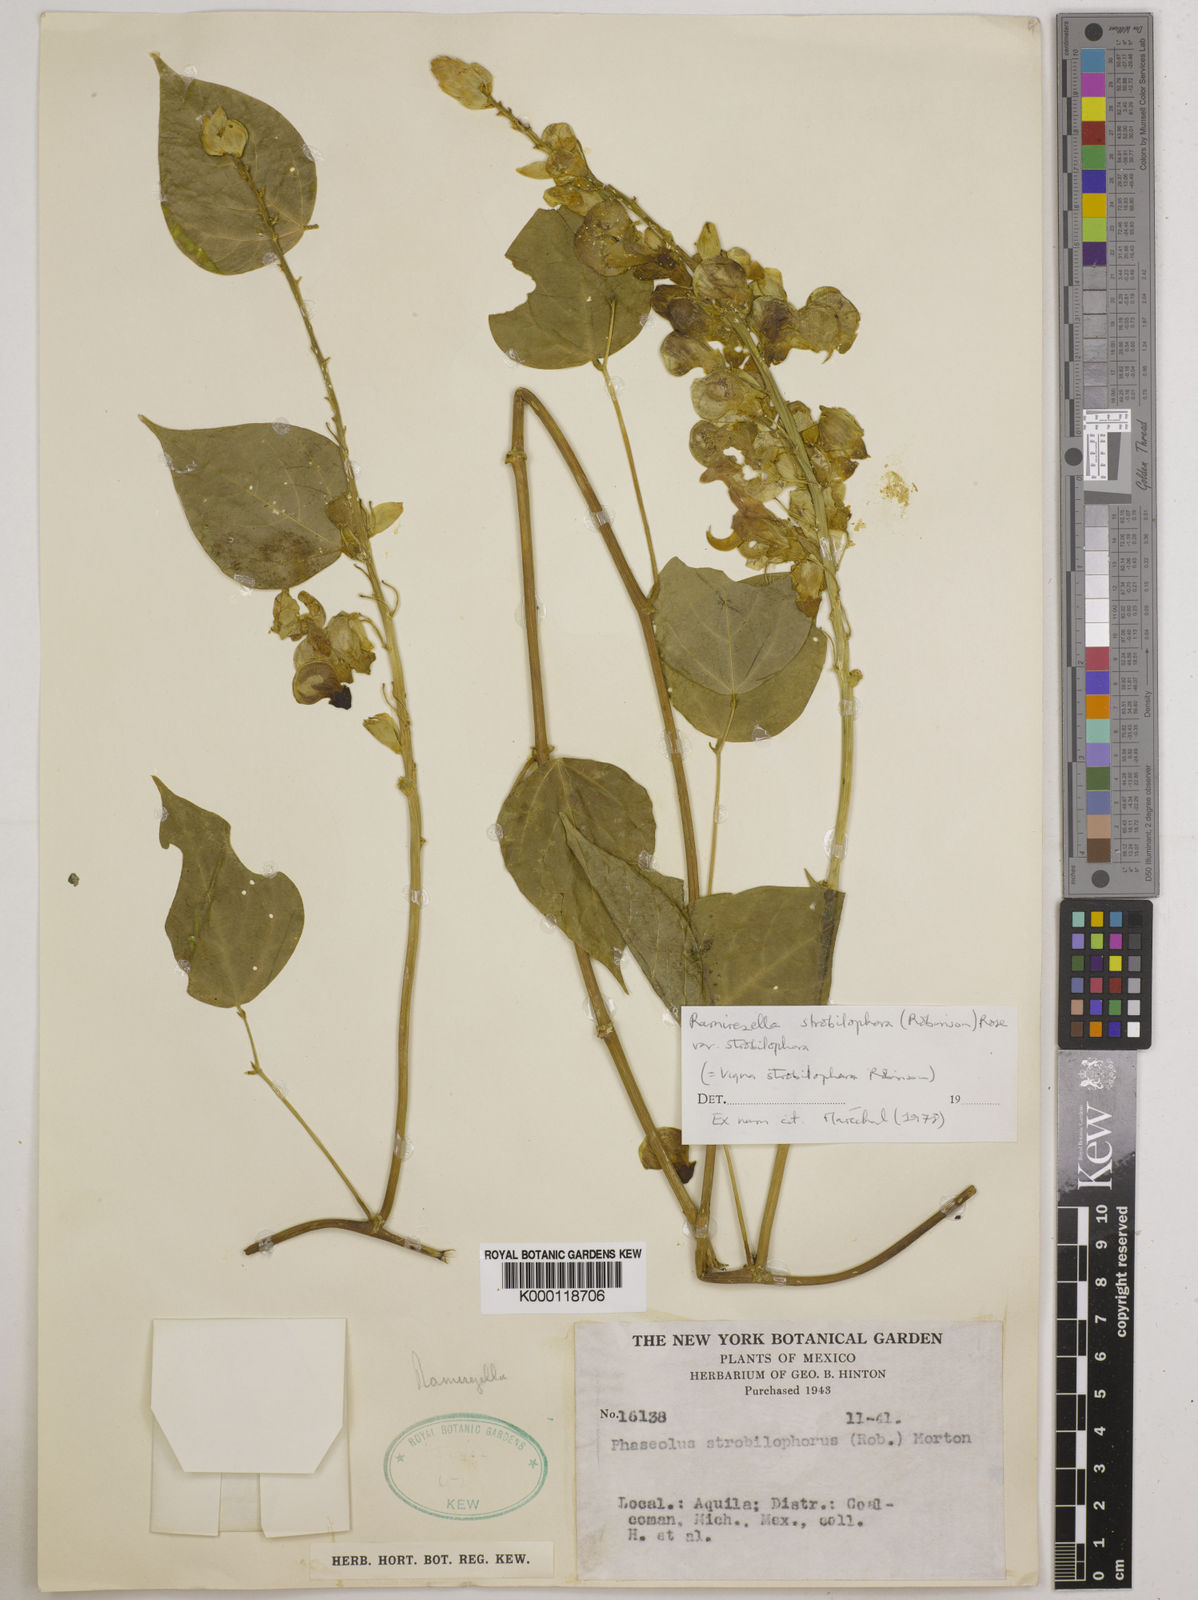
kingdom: Plantae
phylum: Tracheophyta
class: Magnoliopsida
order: Fabales
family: Fabaceae
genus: Ramirezella
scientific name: Ramirezella strobilophora
